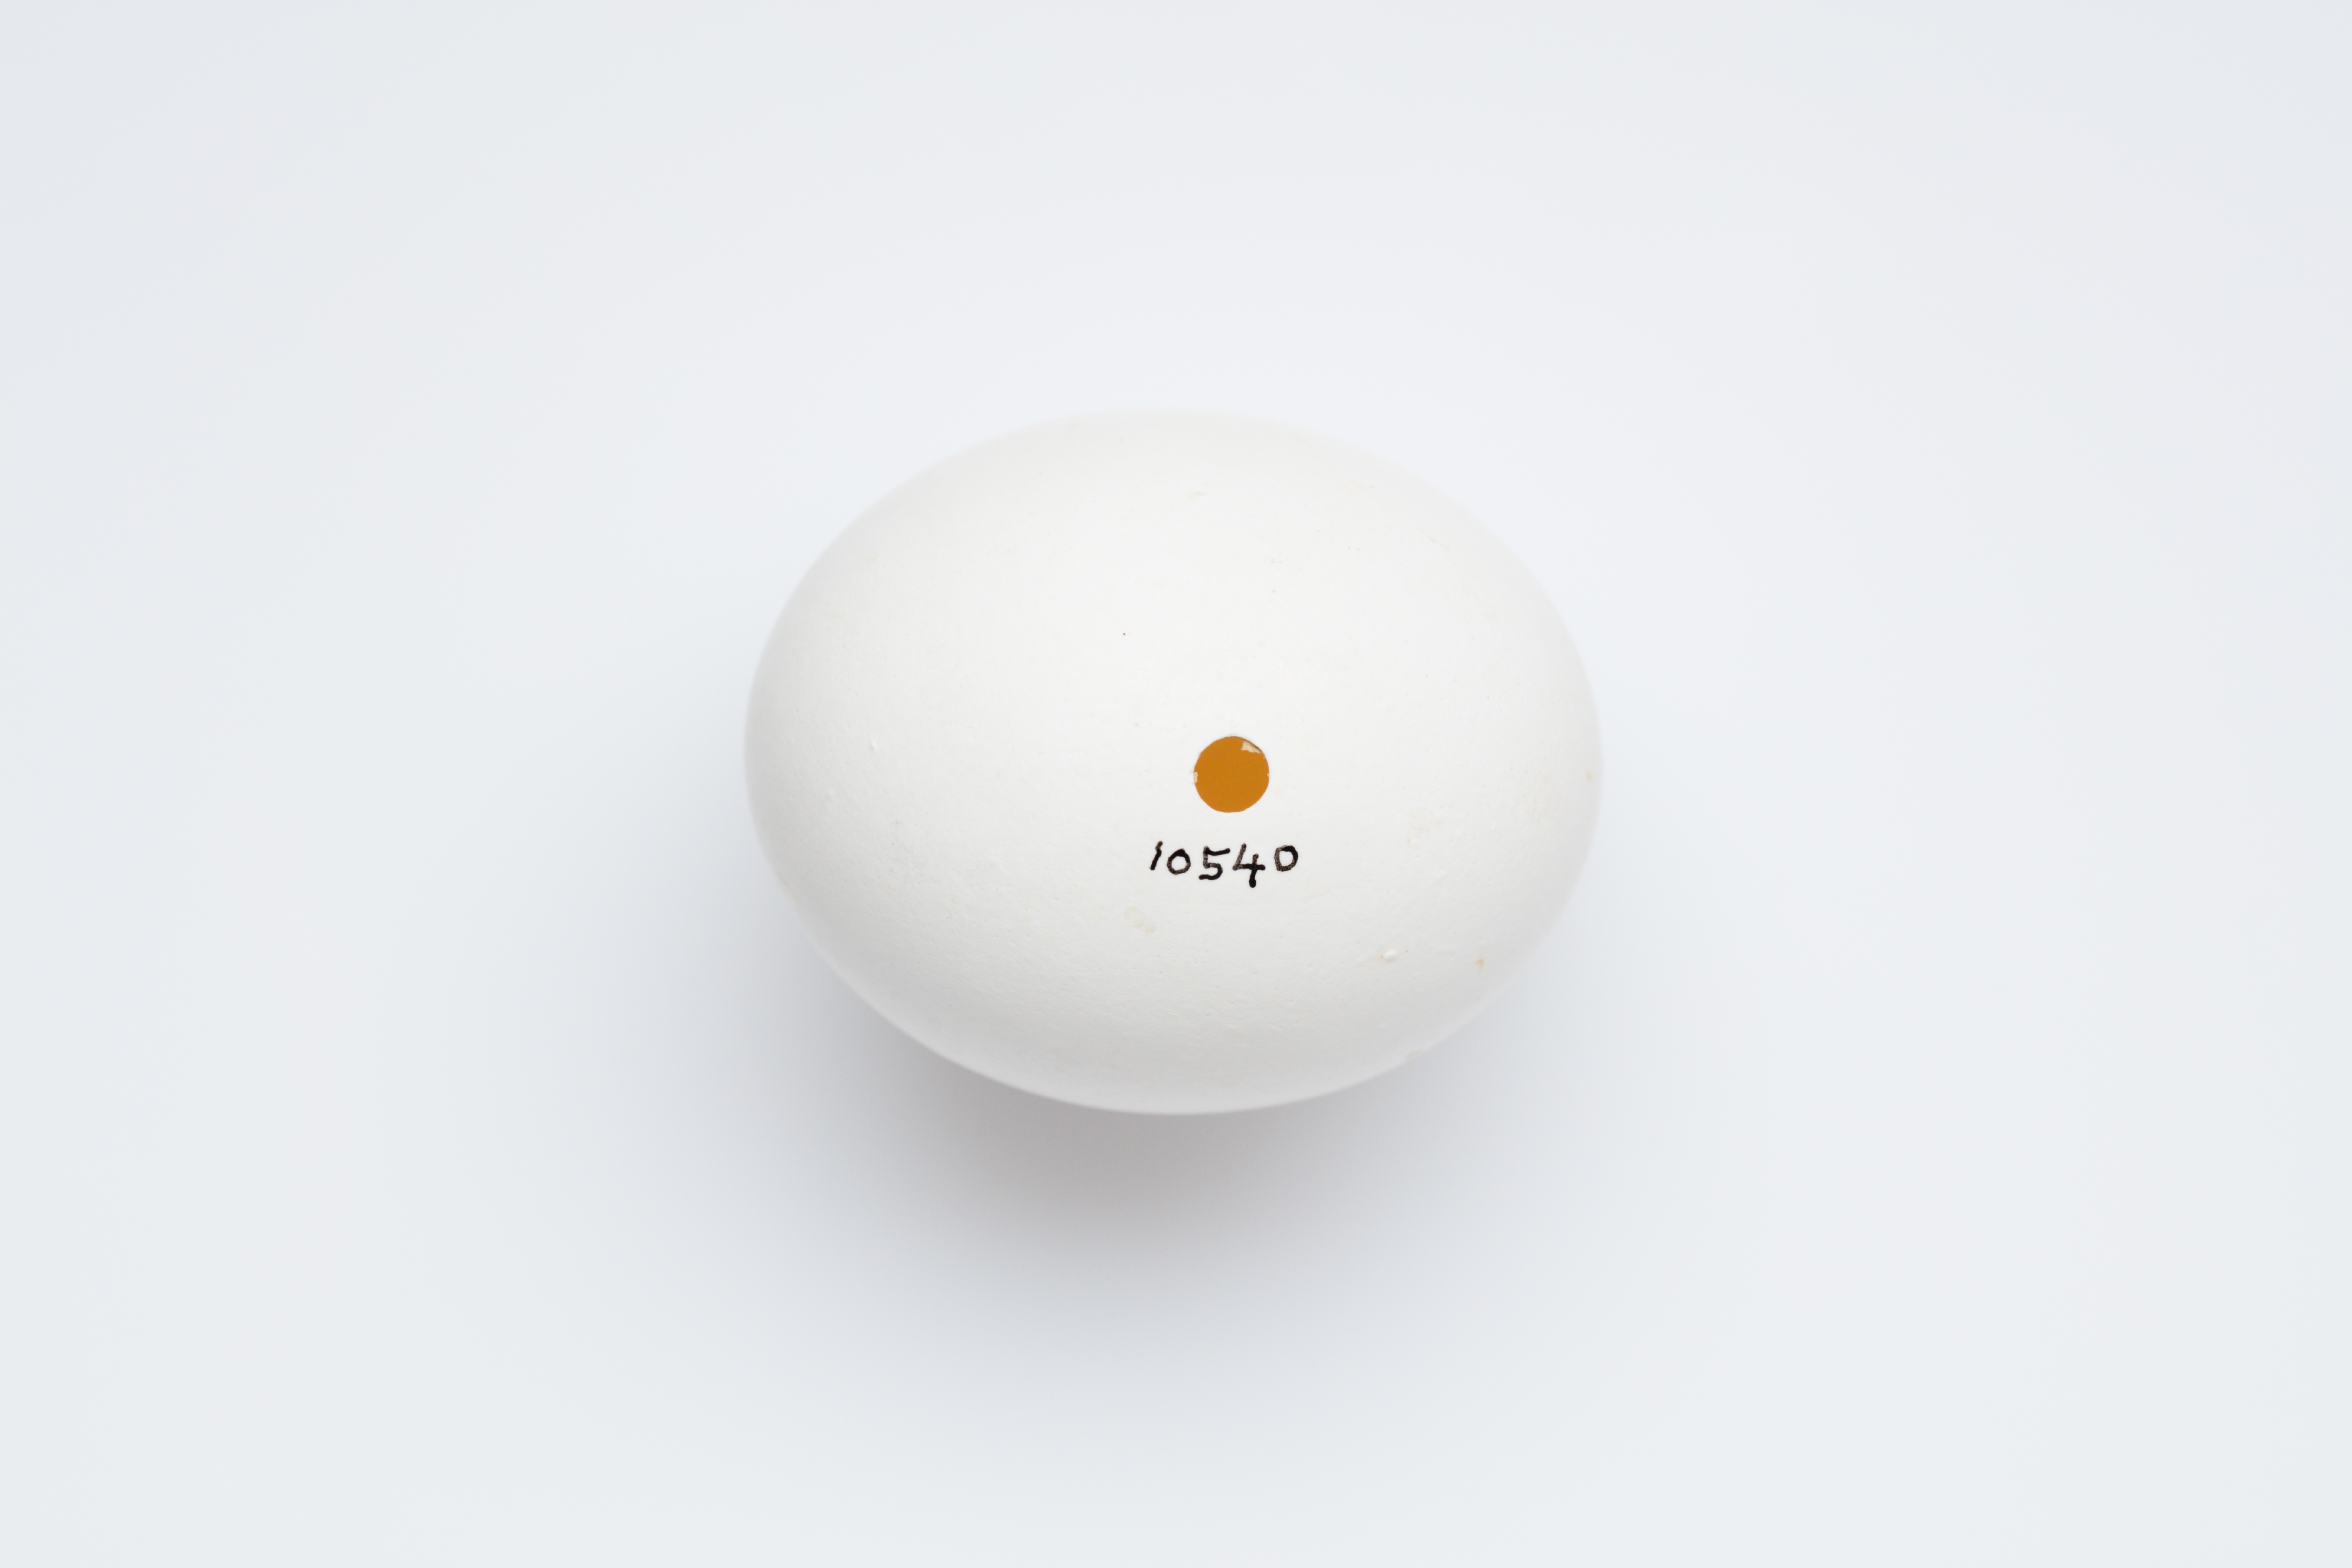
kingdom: Animalia
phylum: Chordata
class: Aves
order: Strigiformes
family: Strigidae
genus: Strix
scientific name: Strix aluco
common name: Tawny owl
